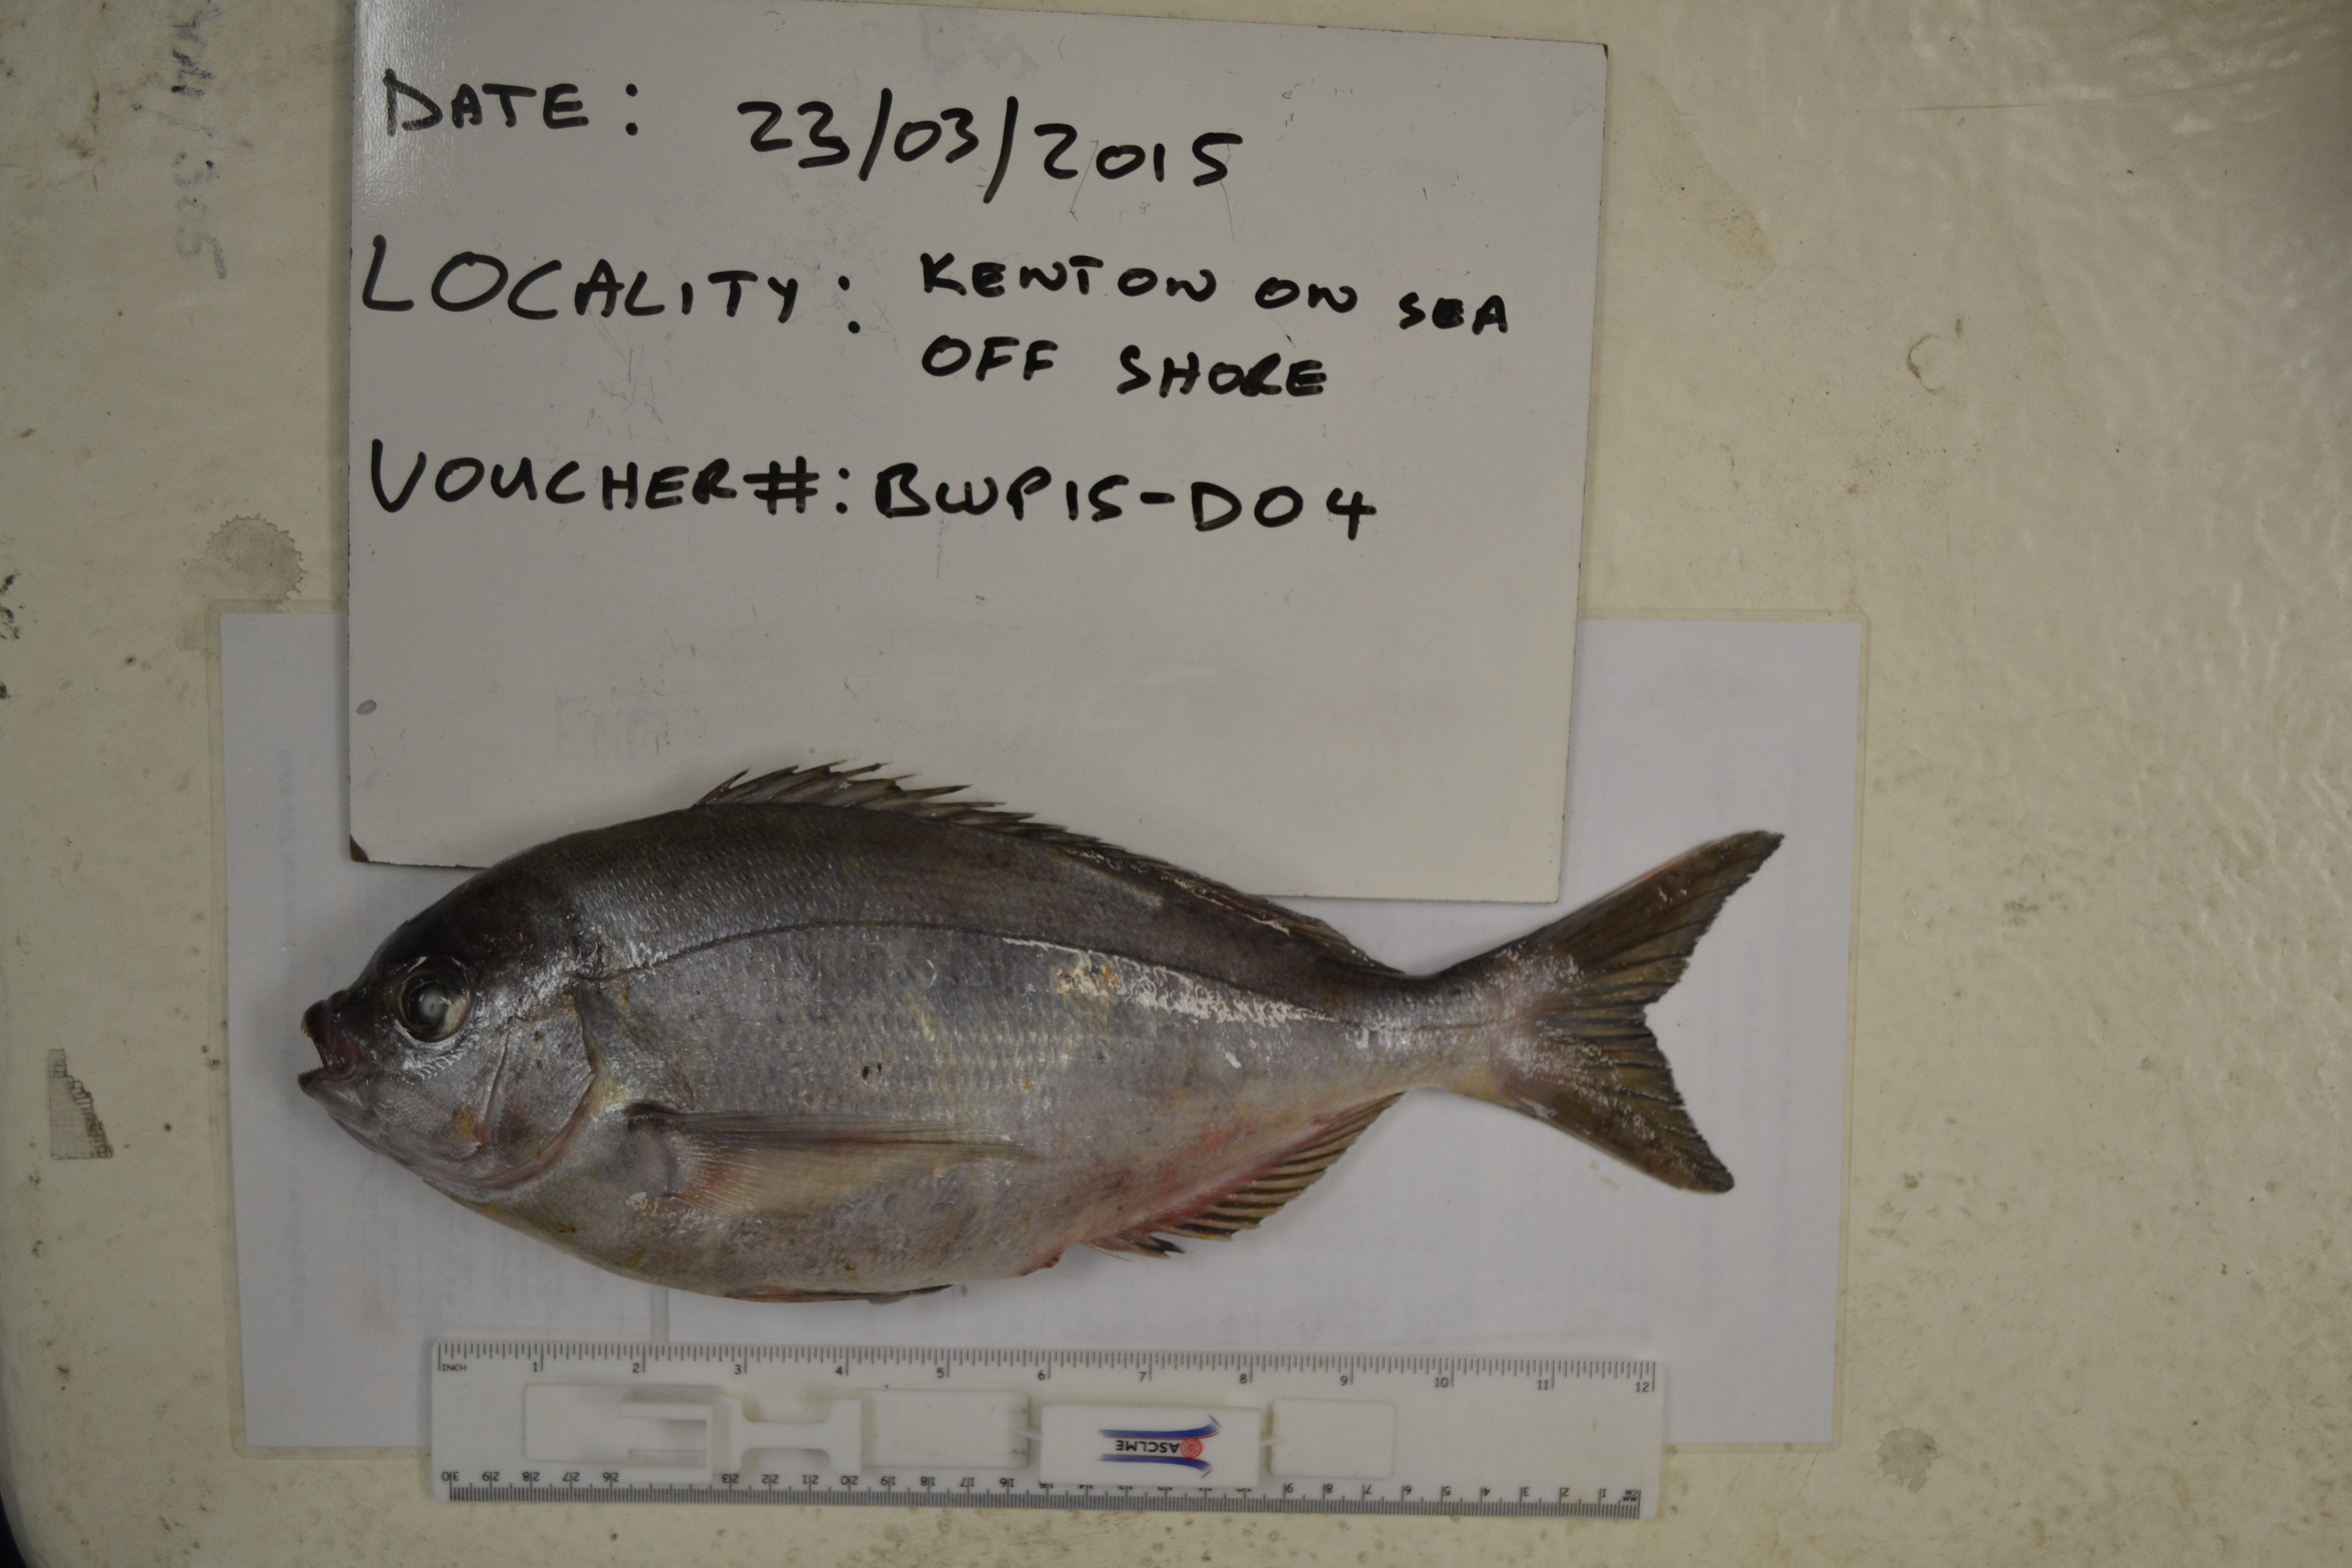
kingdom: Animalia
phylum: Chordata
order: Perciformes
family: Sparidae
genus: Pachymetopon
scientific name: Pachymetopon aeneum
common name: Blue hottentot
